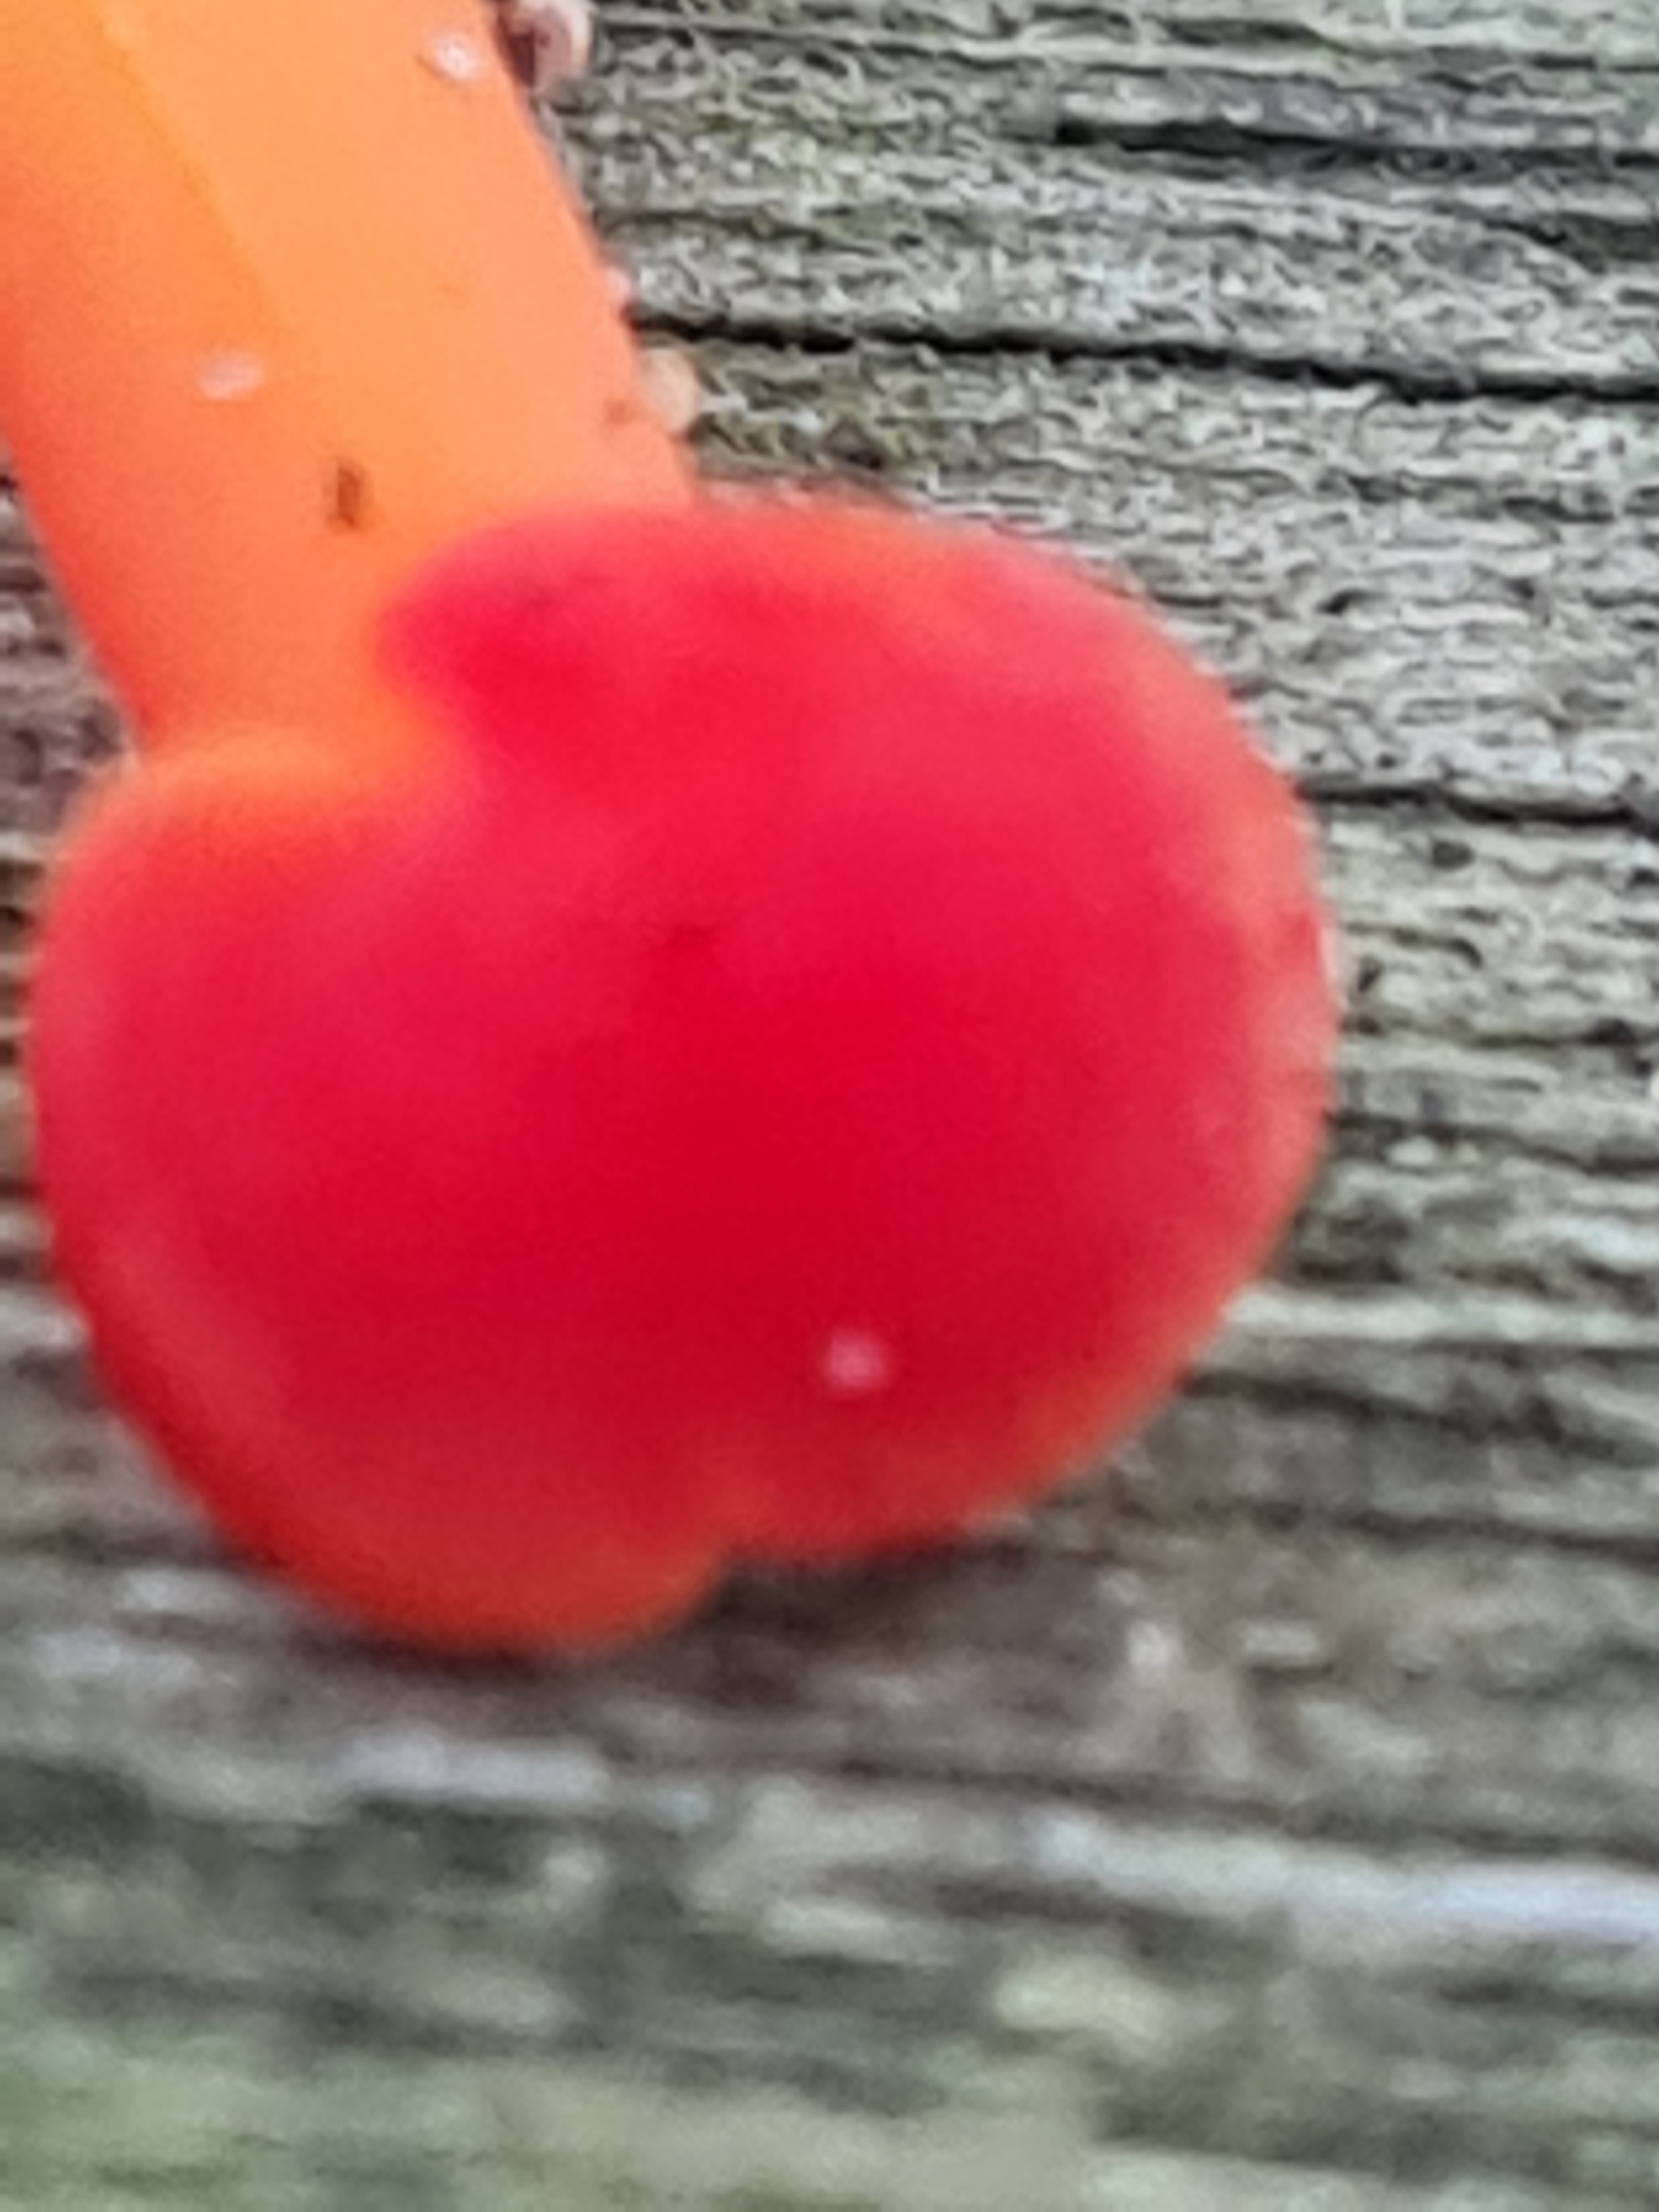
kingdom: Fungi
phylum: Basidiomycota
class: Agaricomycetes
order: Agaricales
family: Hygrophoraceae
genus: Hygrocybe
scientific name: Hygrocybe
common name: vokshat
